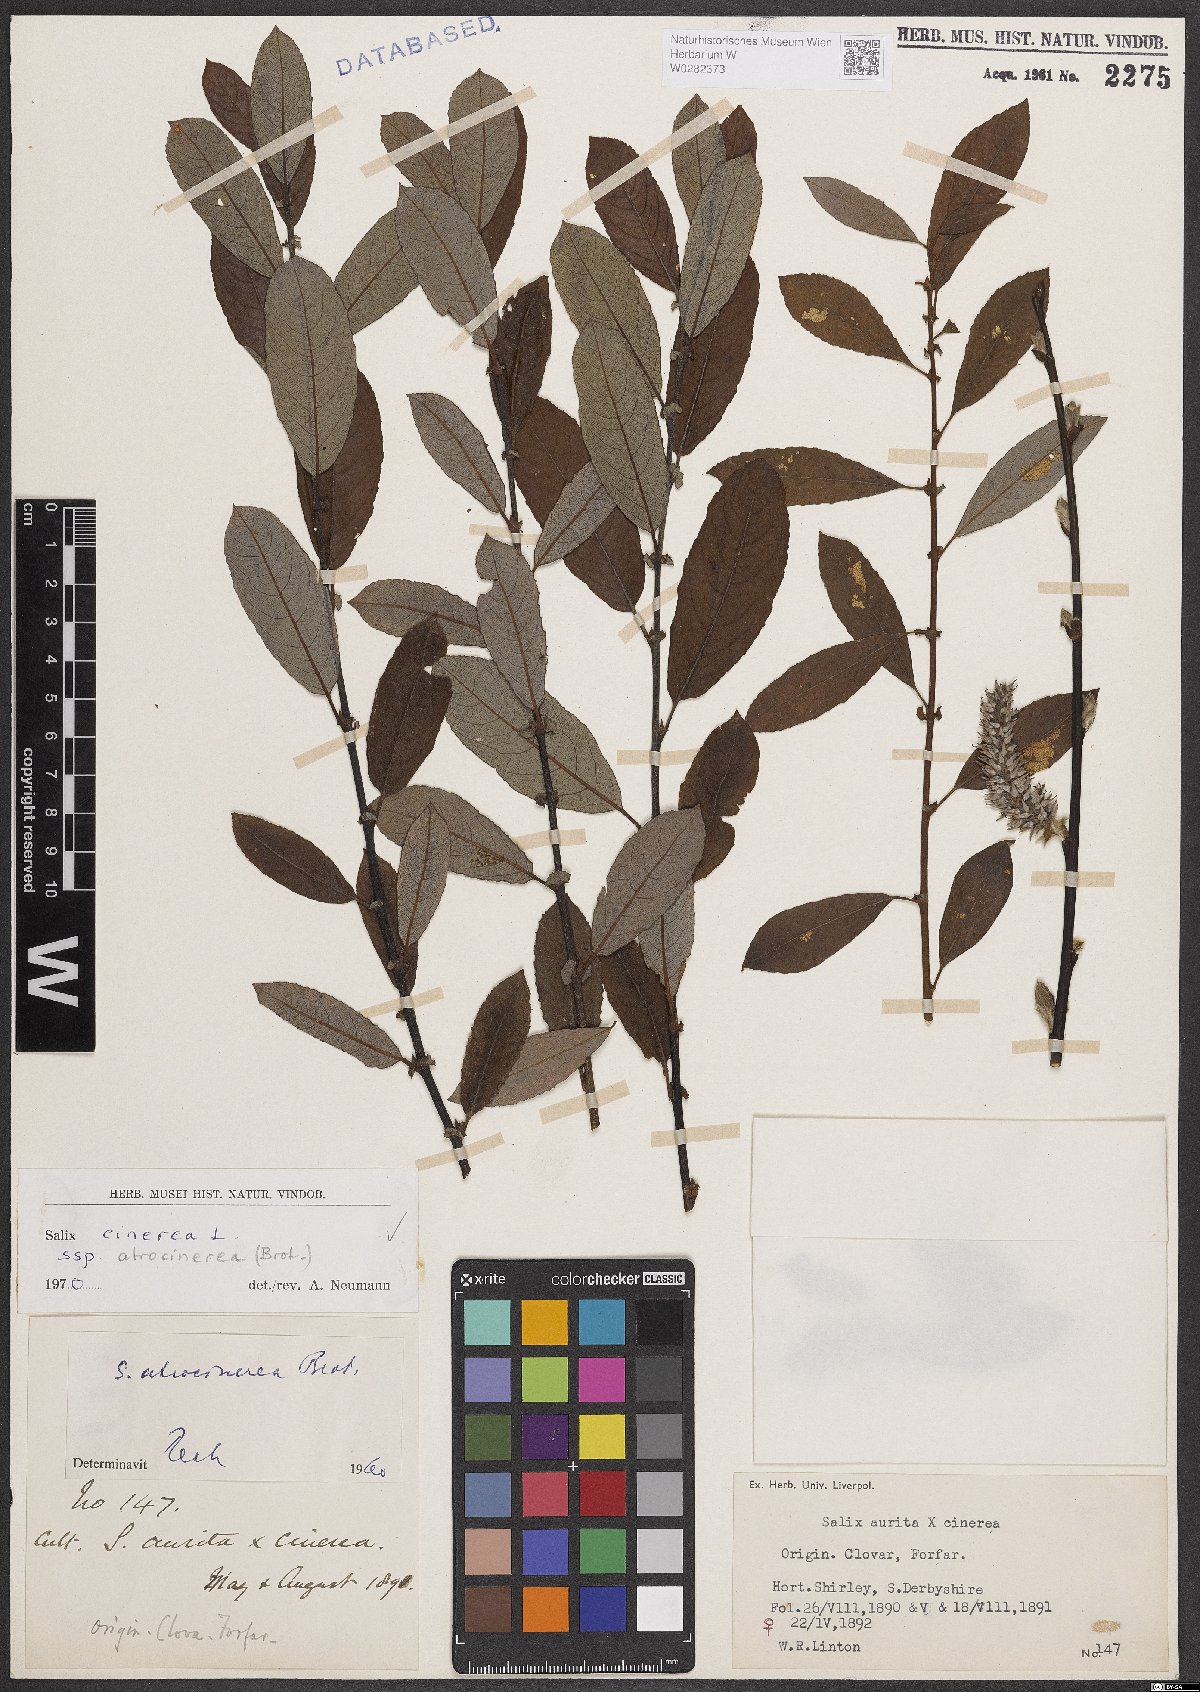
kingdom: Plantae
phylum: Tracheophyta
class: Magnoliopsida
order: Malpighiales
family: Salicaceae
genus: Salix
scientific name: Salix atrocinerea
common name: Rusty willow
